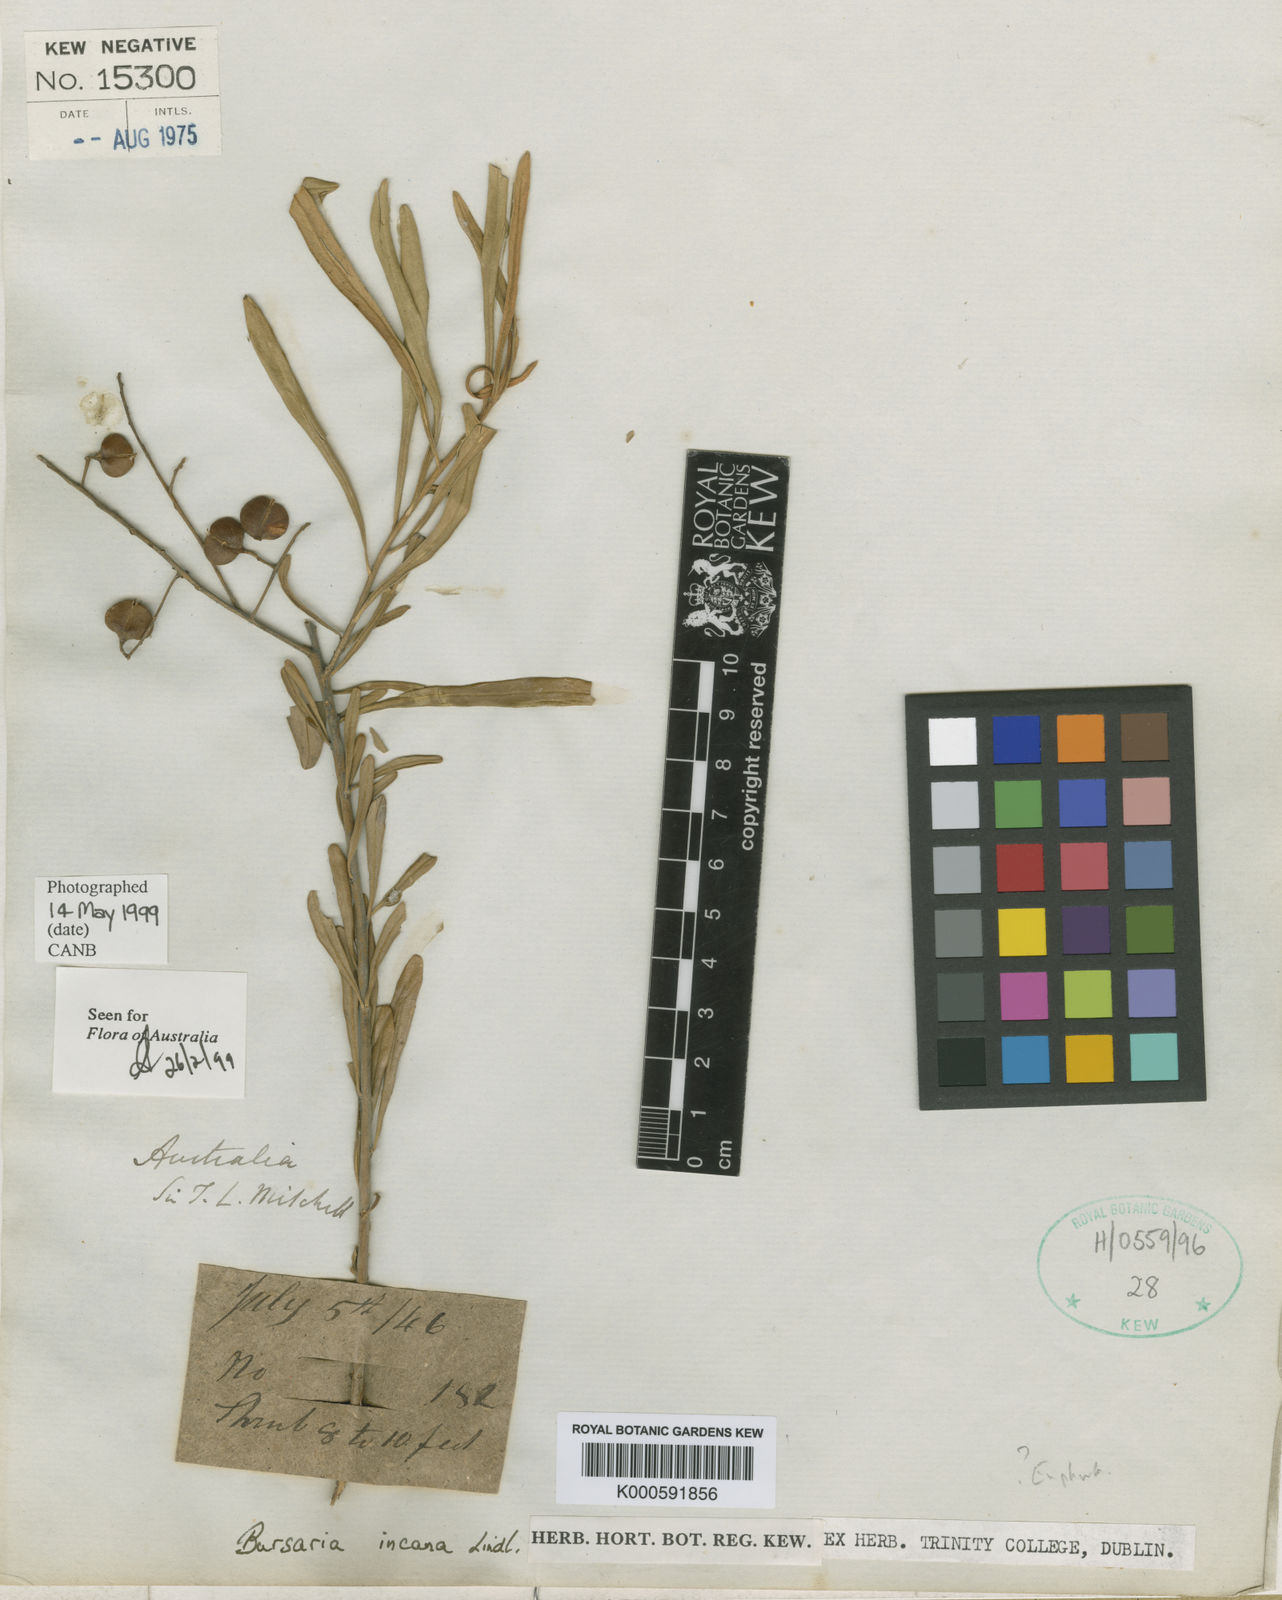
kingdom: Plantae
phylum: Tracheophyta
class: Magnoliopsida
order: Apiales
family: Pittosporaceae
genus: Bursaria
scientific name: Bursaria incana
